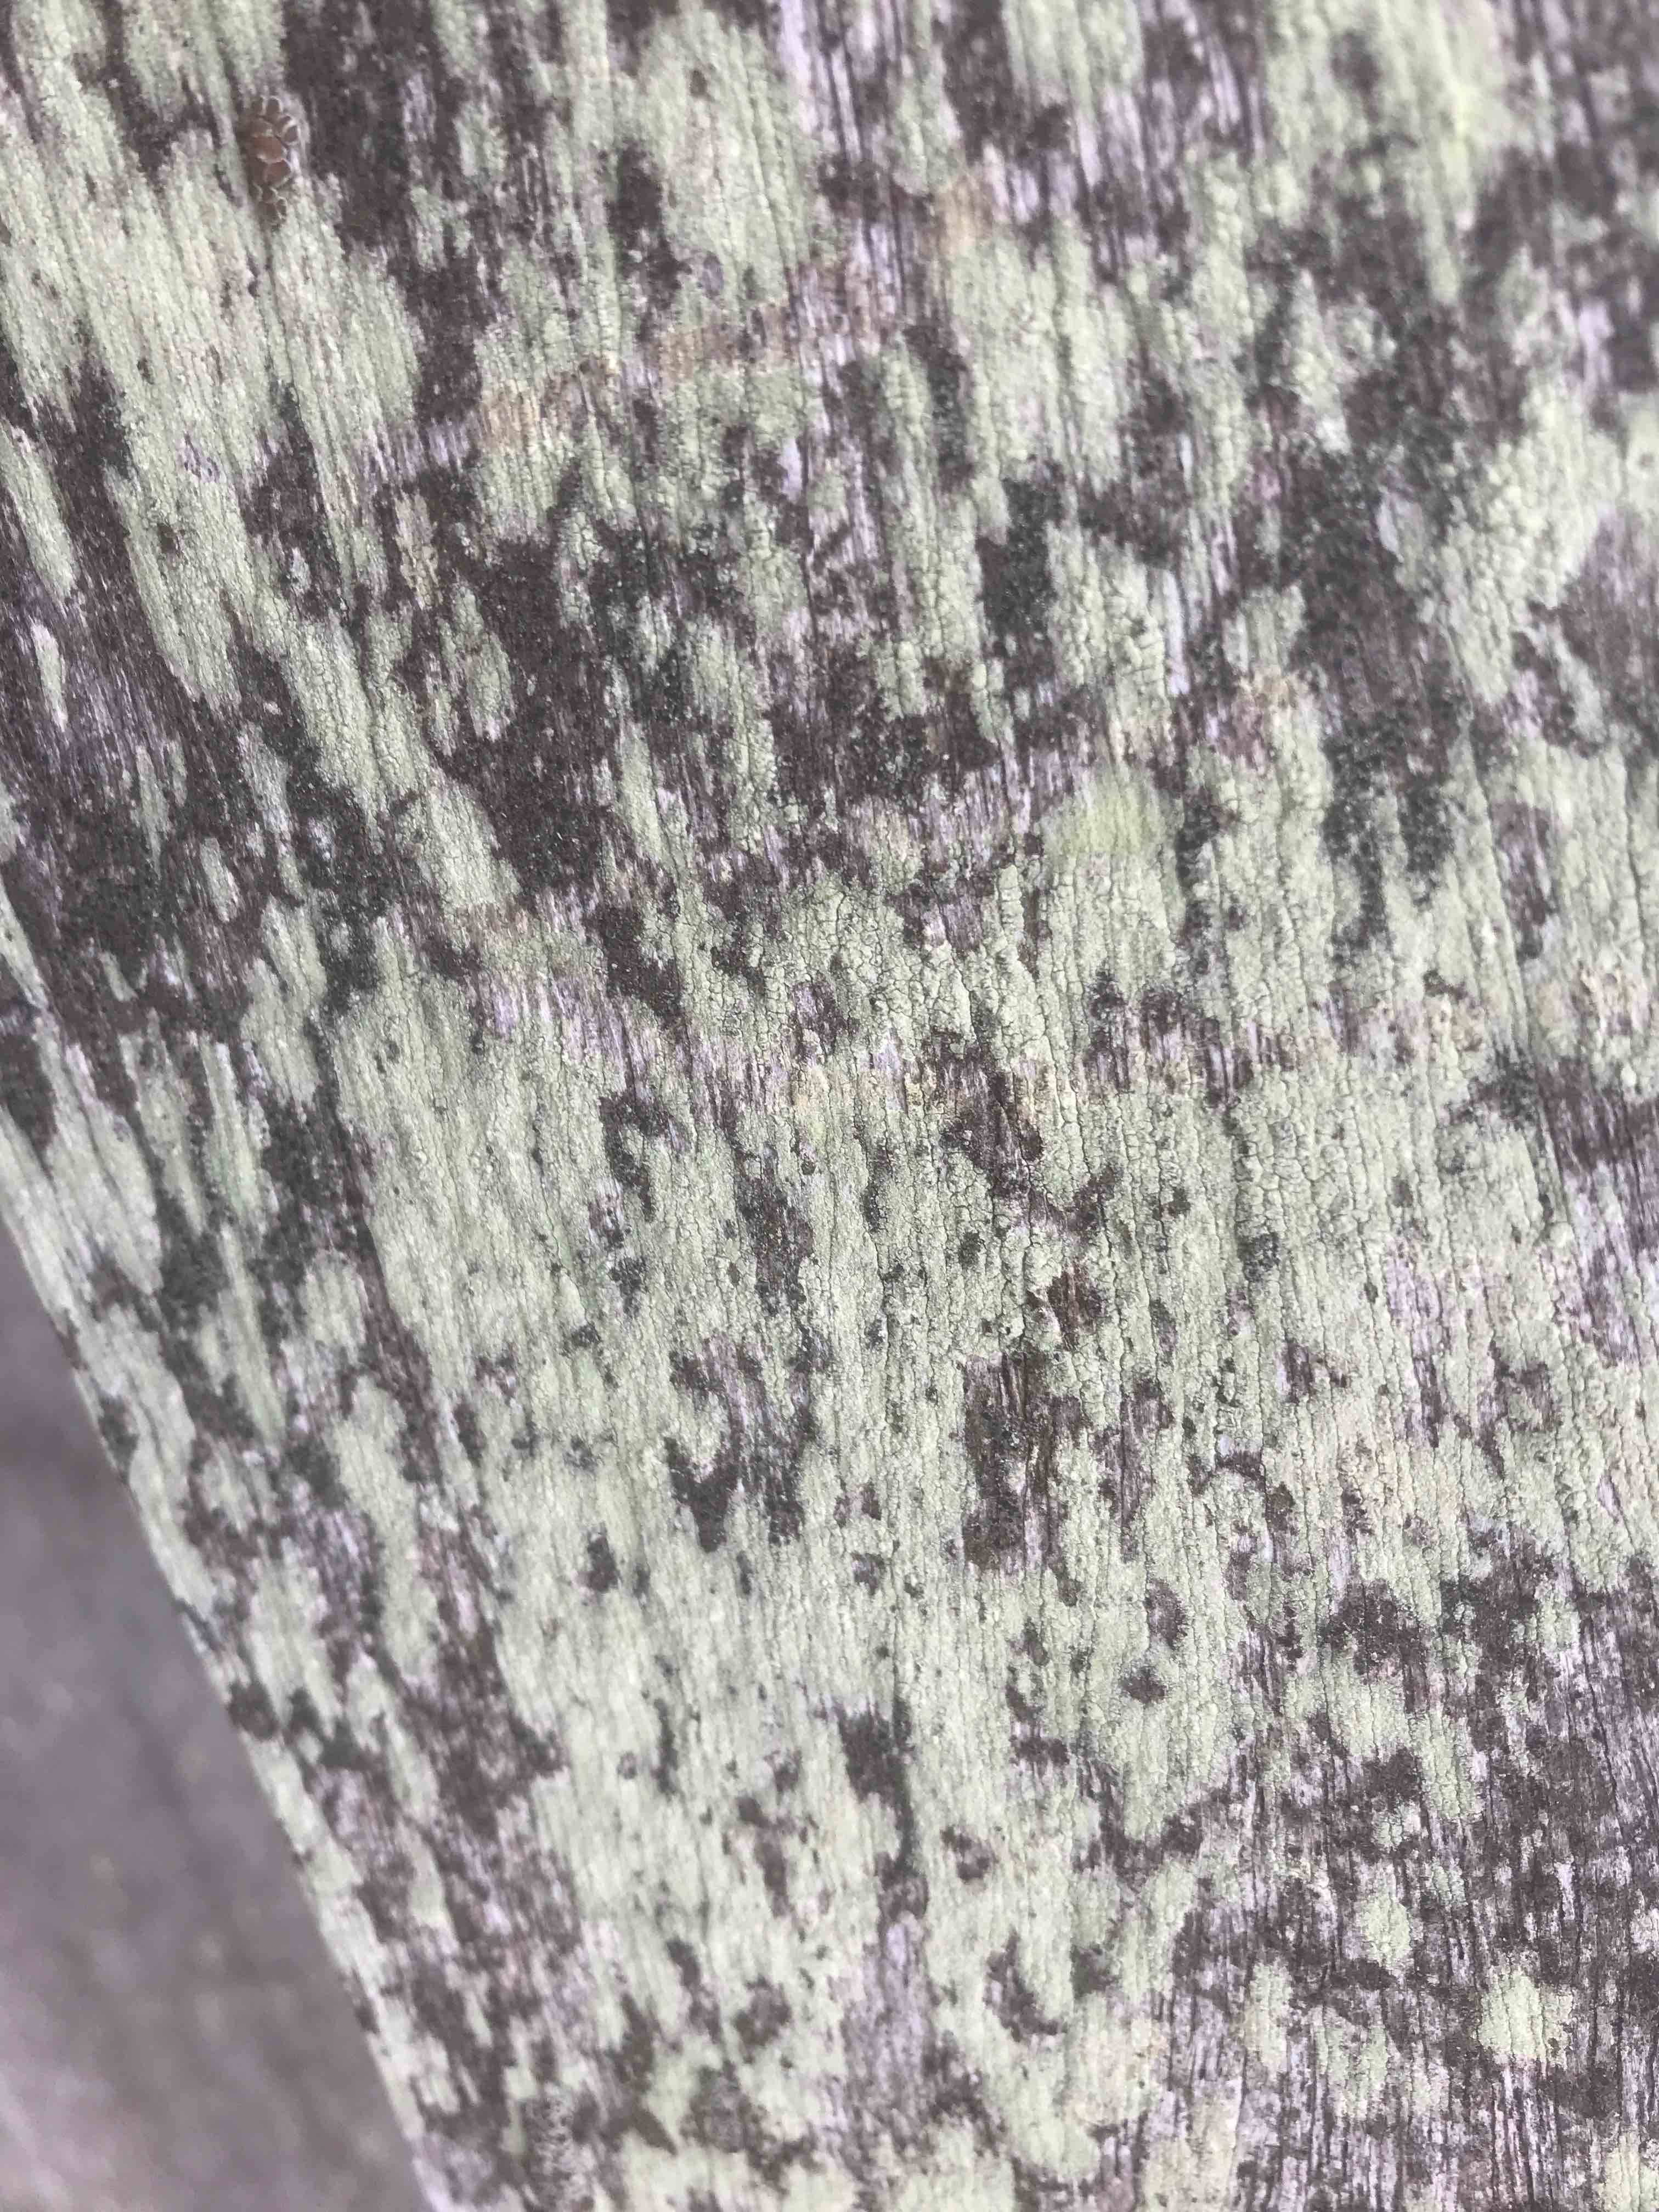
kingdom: Fungi
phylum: Ascomycota
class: Lecanoromycetes
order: Lecanorales
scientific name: Lecanorales
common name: skivelavordenen
